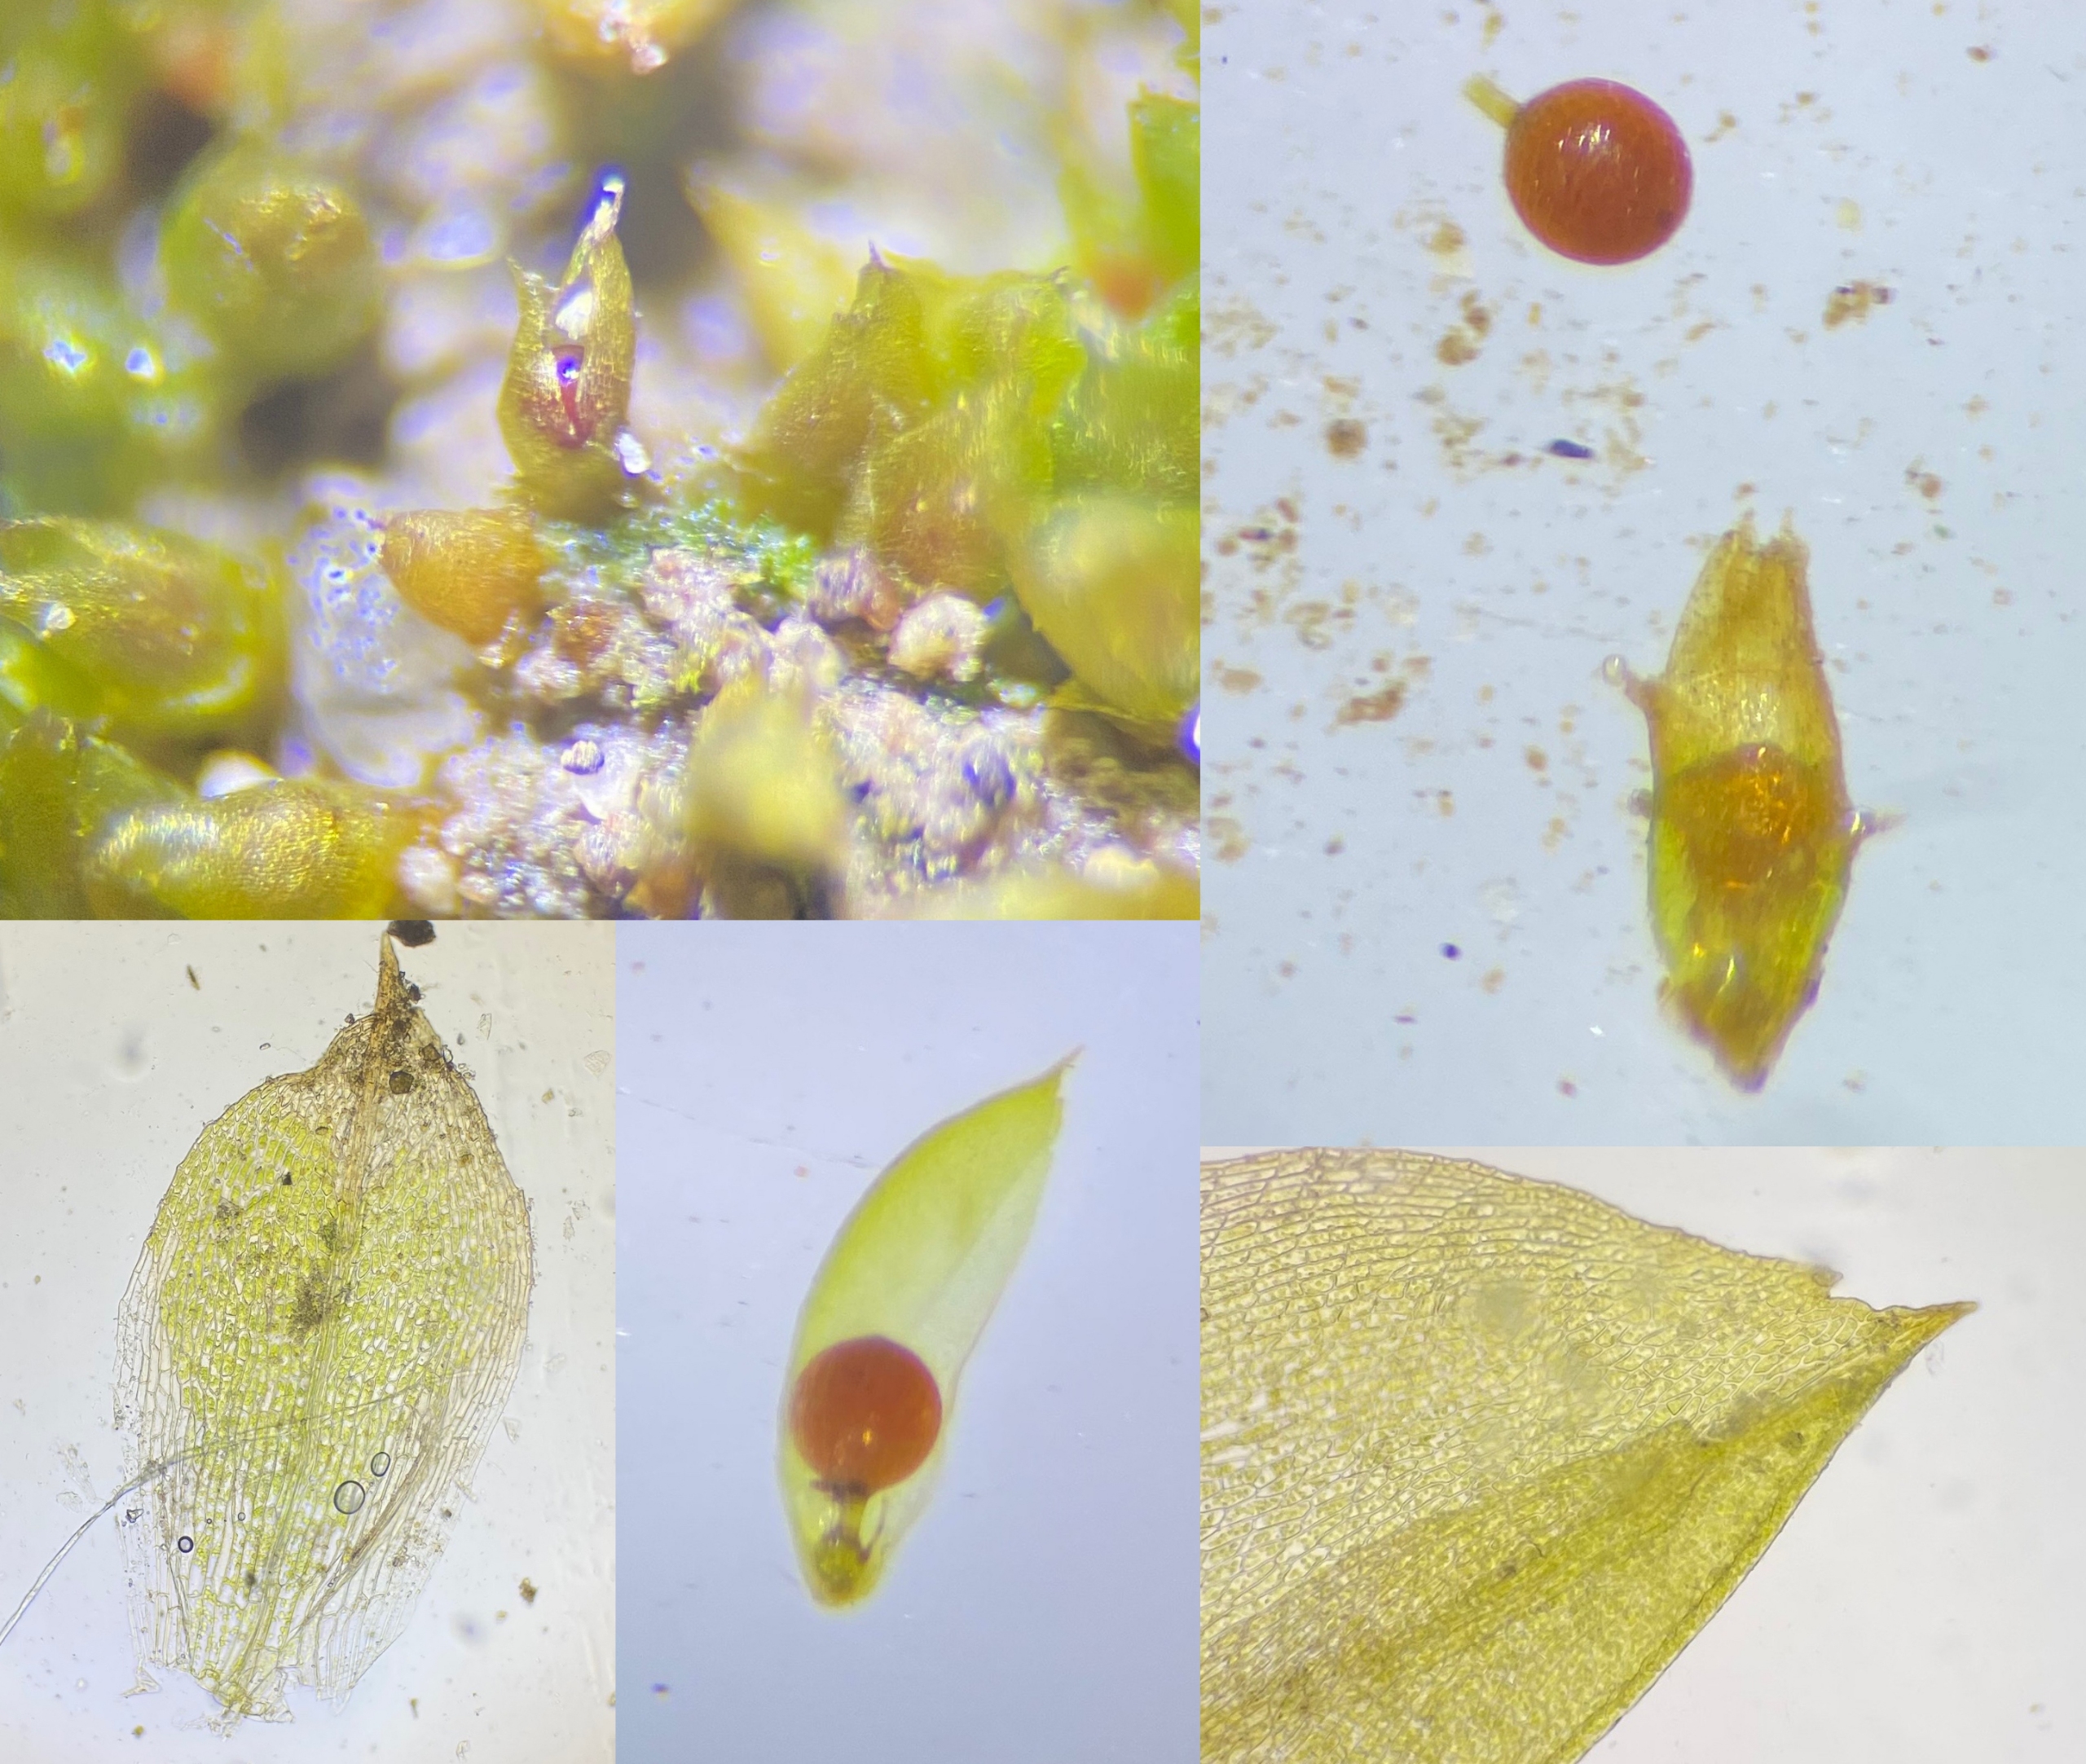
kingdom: Plantae
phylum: Bryophyta
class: Bryopsida
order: Pottiales
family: Pottiaceae
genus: Acaulon
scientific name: Acaulon muticum
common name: Siddende ægmos
